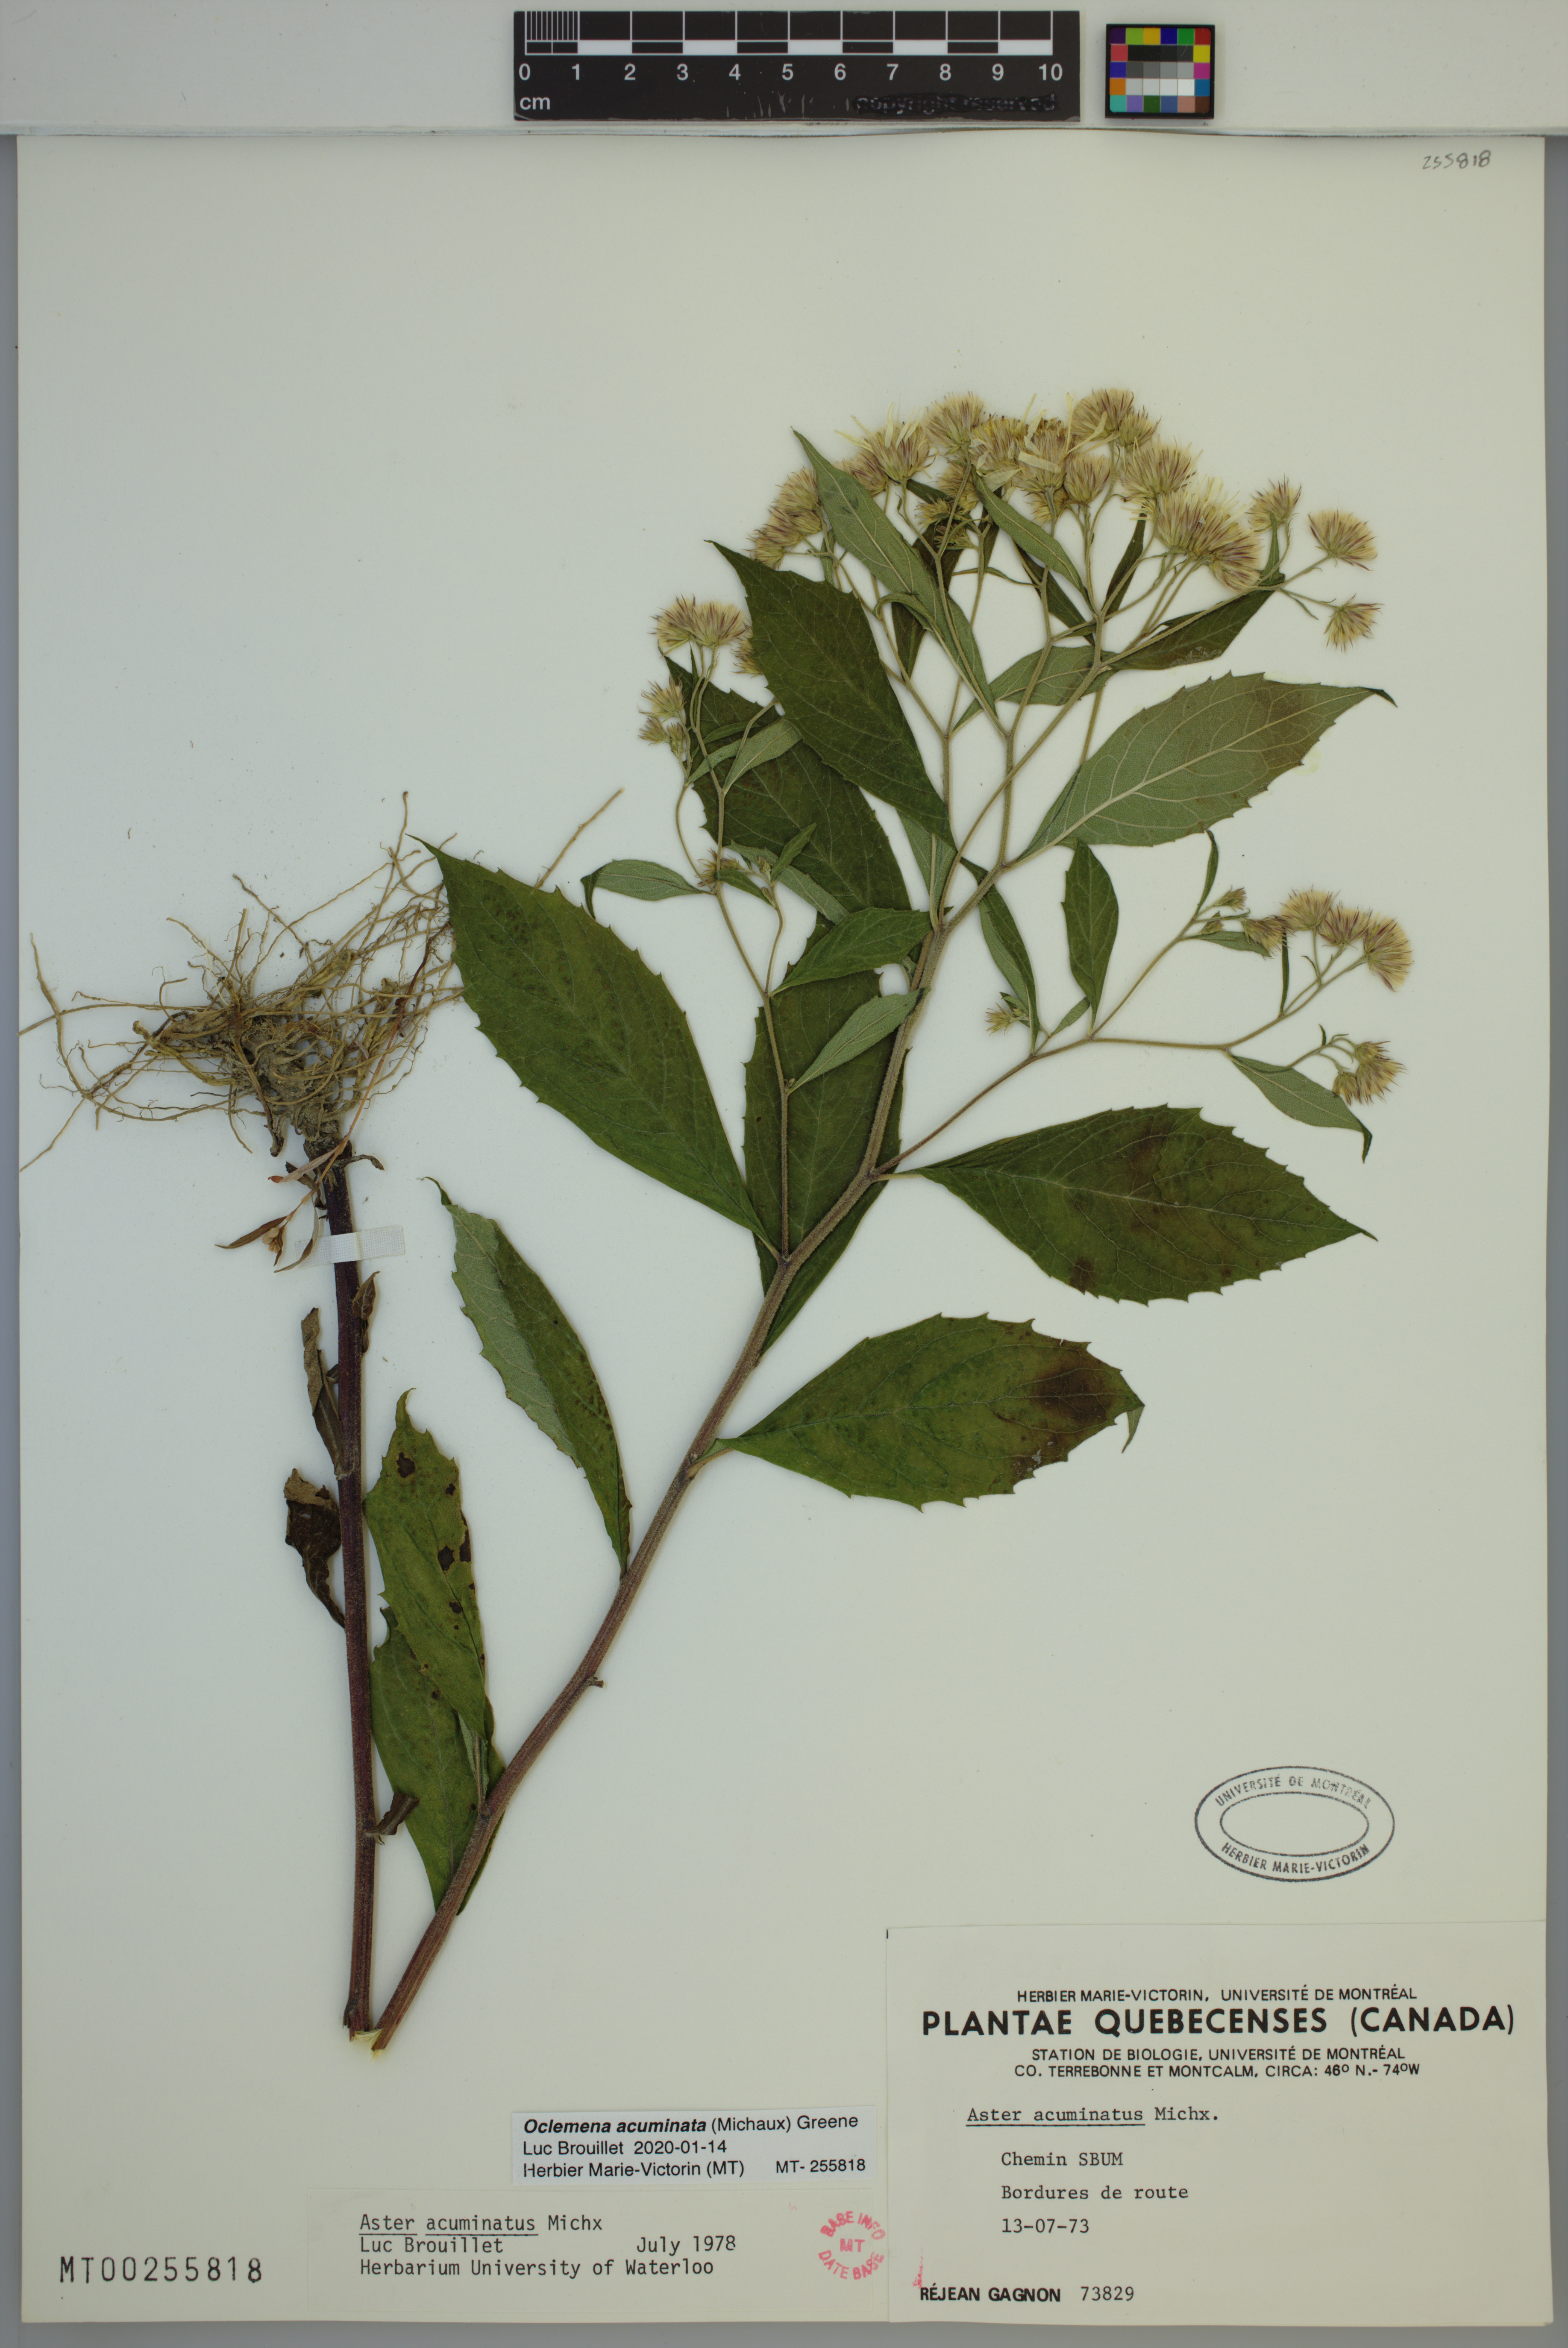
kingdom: Plantae
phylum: Tracheophyta
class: Magnoliopsida
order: Asterales
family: Asteraceae
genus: Oclemena
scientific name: Oclemena acuminata
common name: Mountain aster
